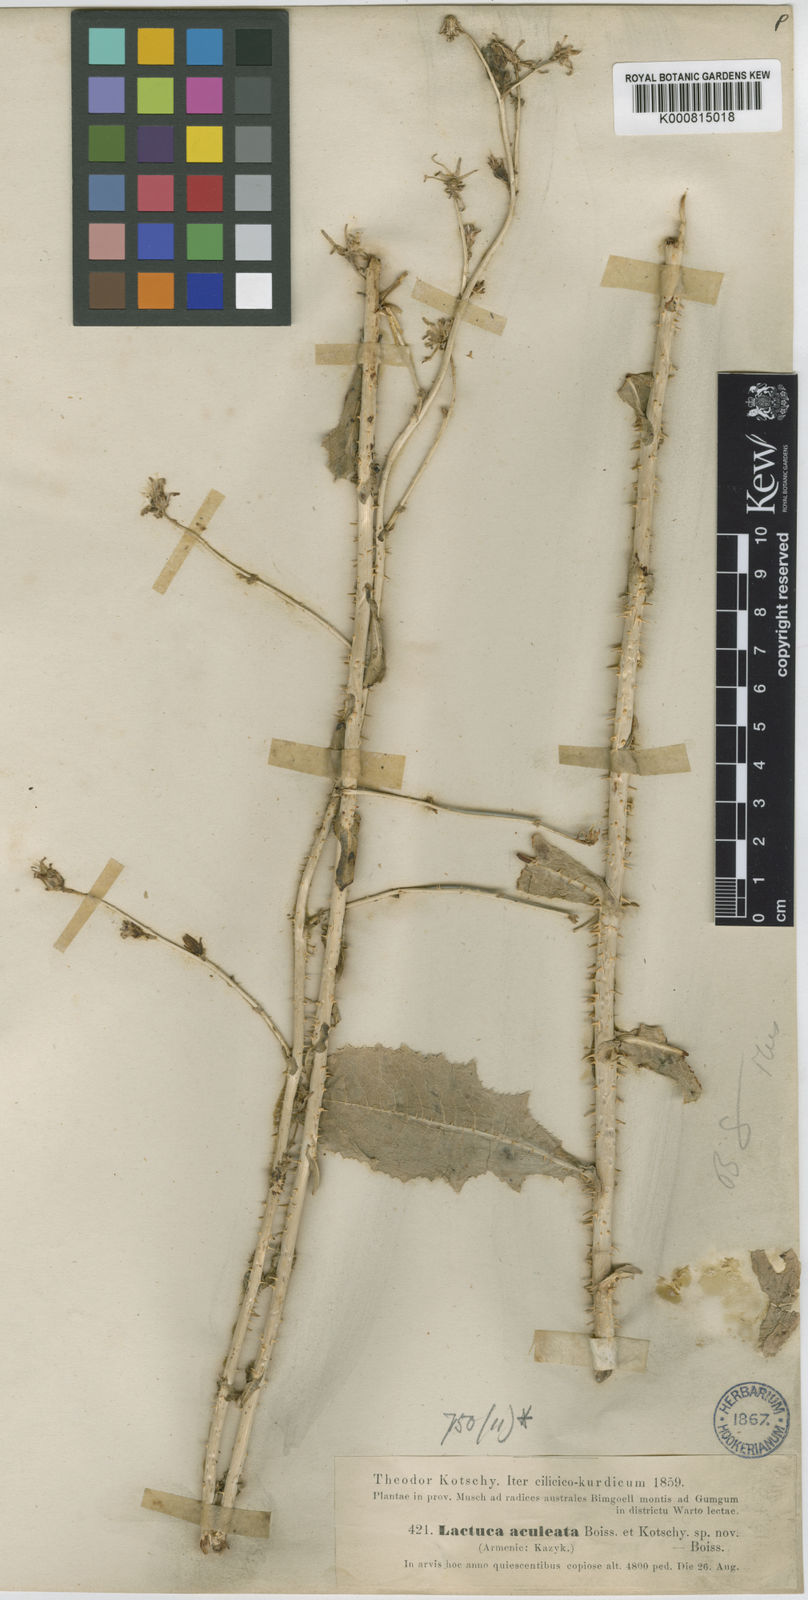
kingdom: Plantae
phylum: Tracheophyta
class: Magnoliopsida
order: Asterales
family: Asteraceae
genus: Lactuca
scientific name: Lactuca aculeata
